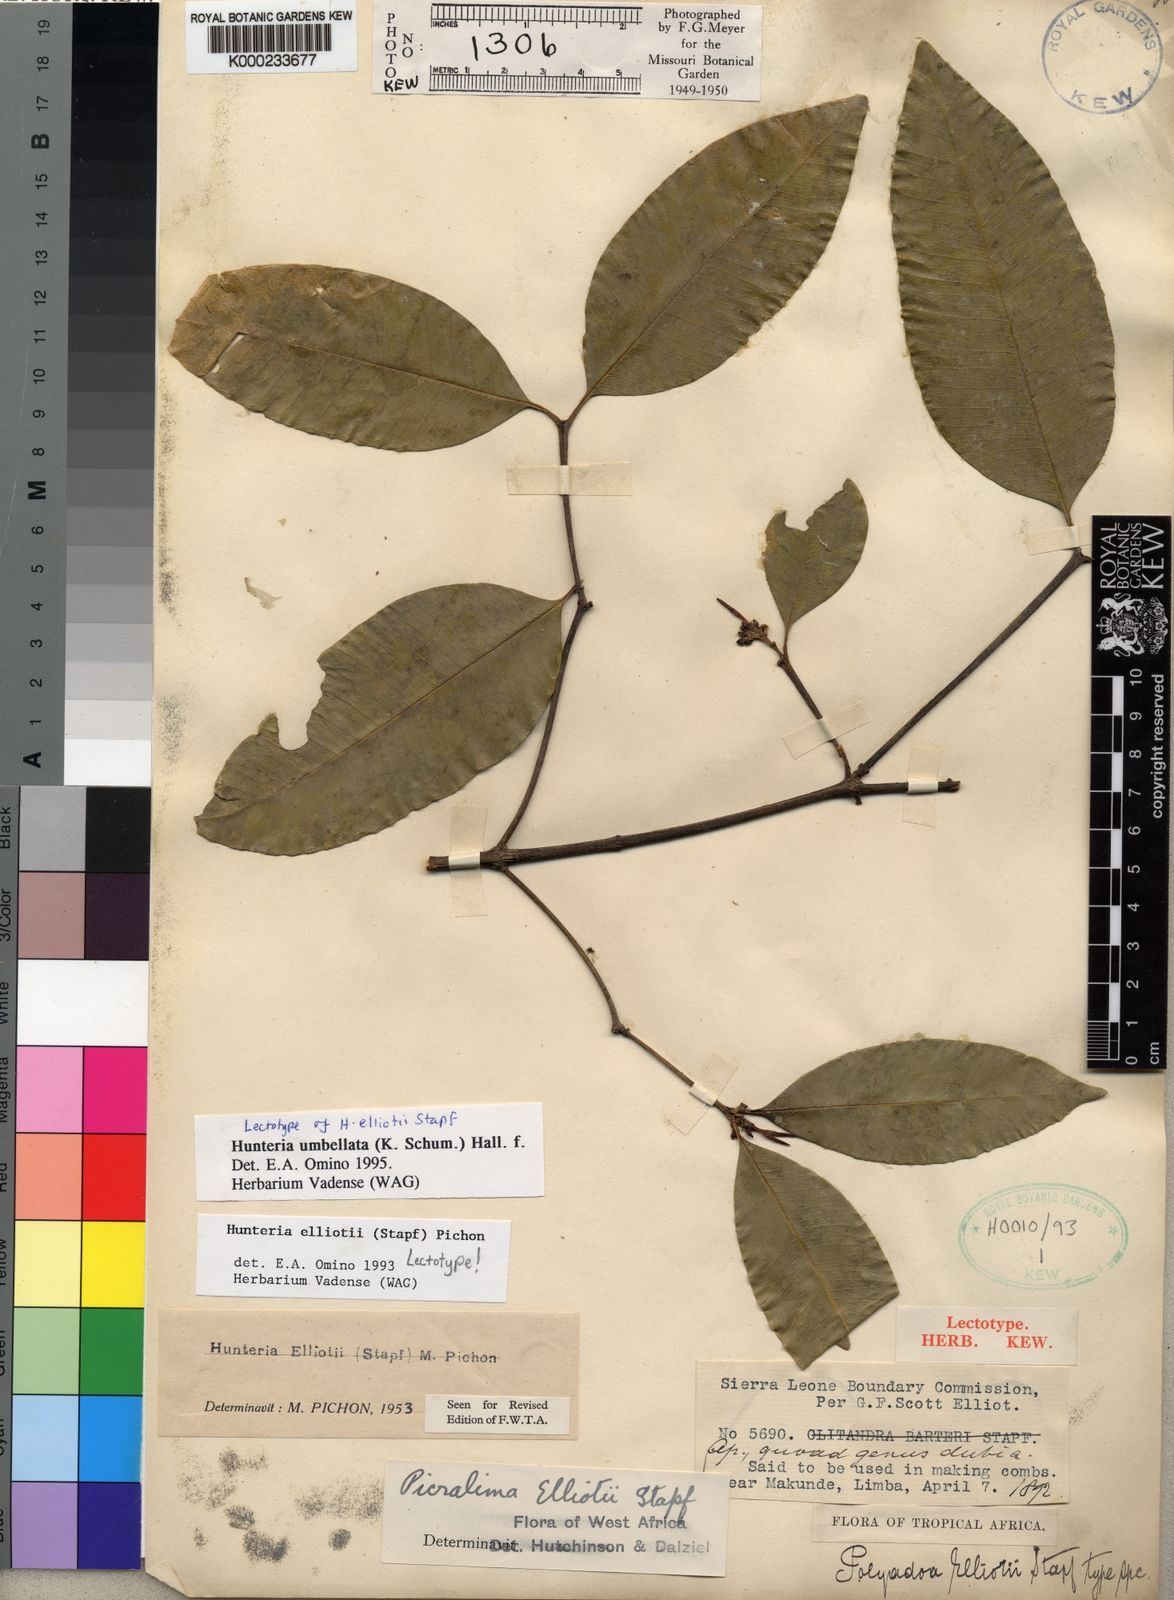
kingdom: Plantae
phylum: Tracheophyta
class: Magnoliopsida
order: Gentianales
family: Apocynaceae
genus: Hunteria
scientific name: Hunteria umbellata
